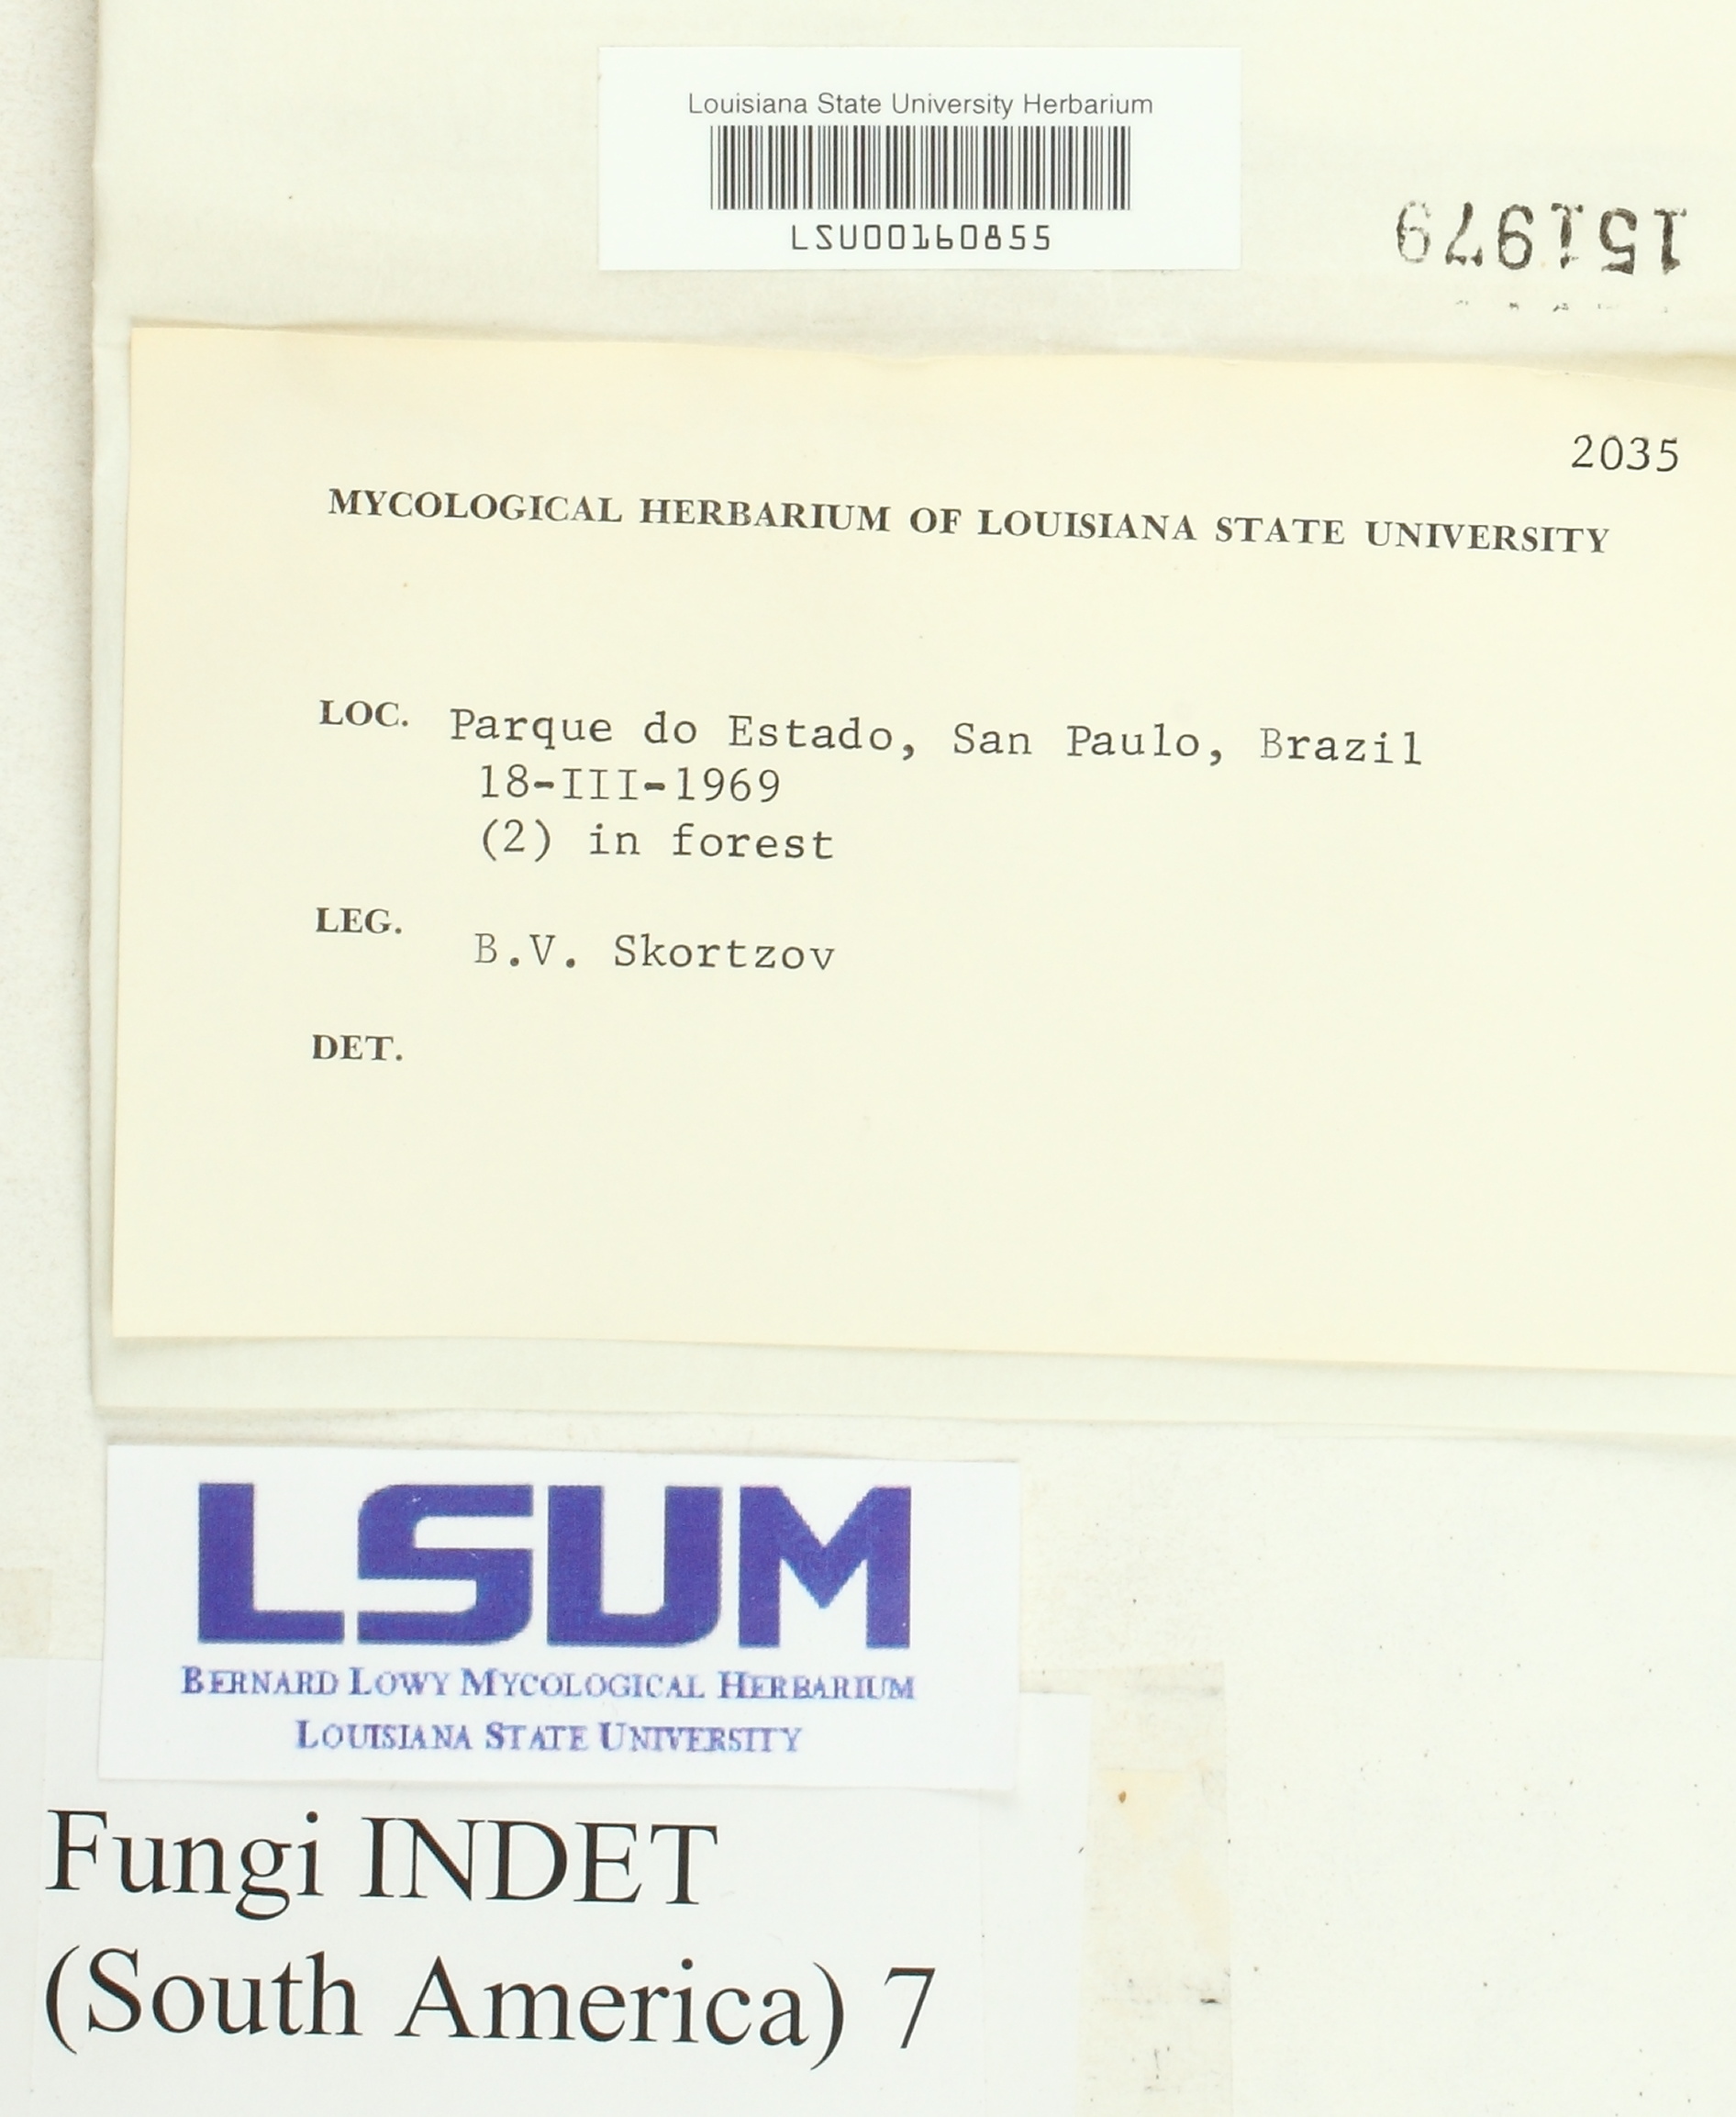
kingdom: Fungi
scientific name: Fungi
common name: Fungi
